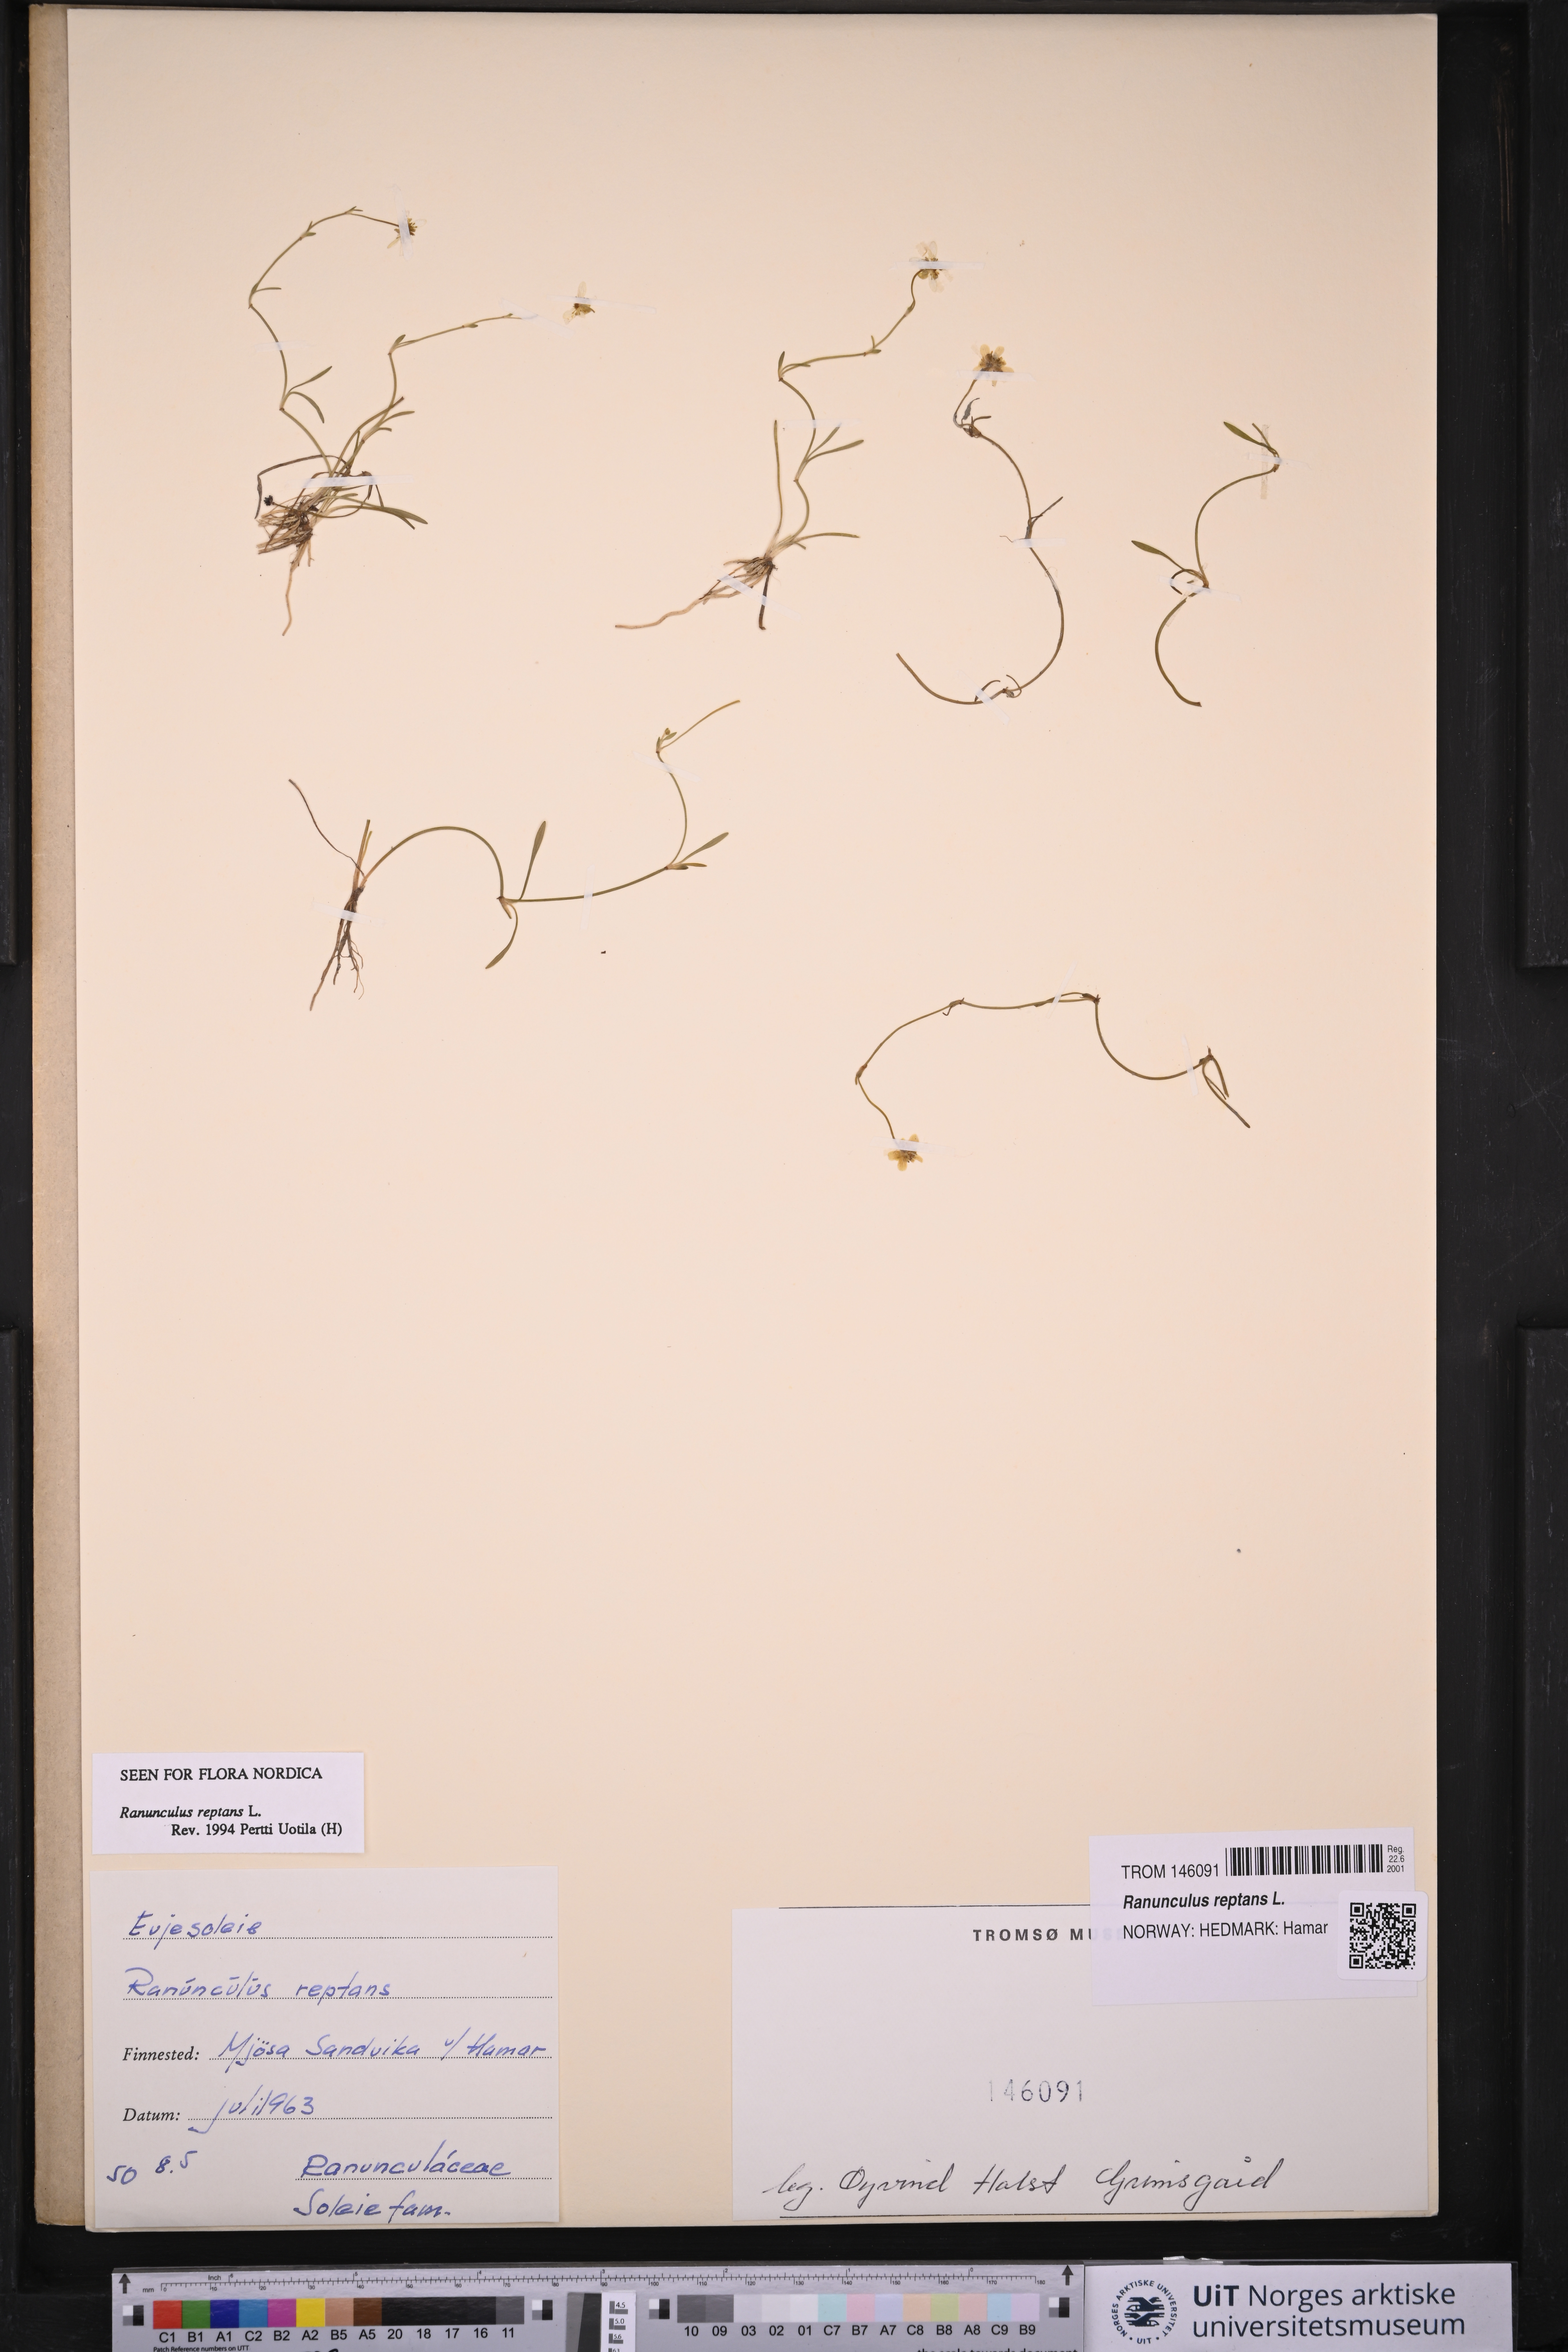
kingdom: Plantae
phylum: Tracheophyta
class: Magnoliopsida
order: Ranunculales
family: Ranunculaceae
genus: Ranunculus
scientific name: Ranunculus reptans
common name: Creeping spearwort
